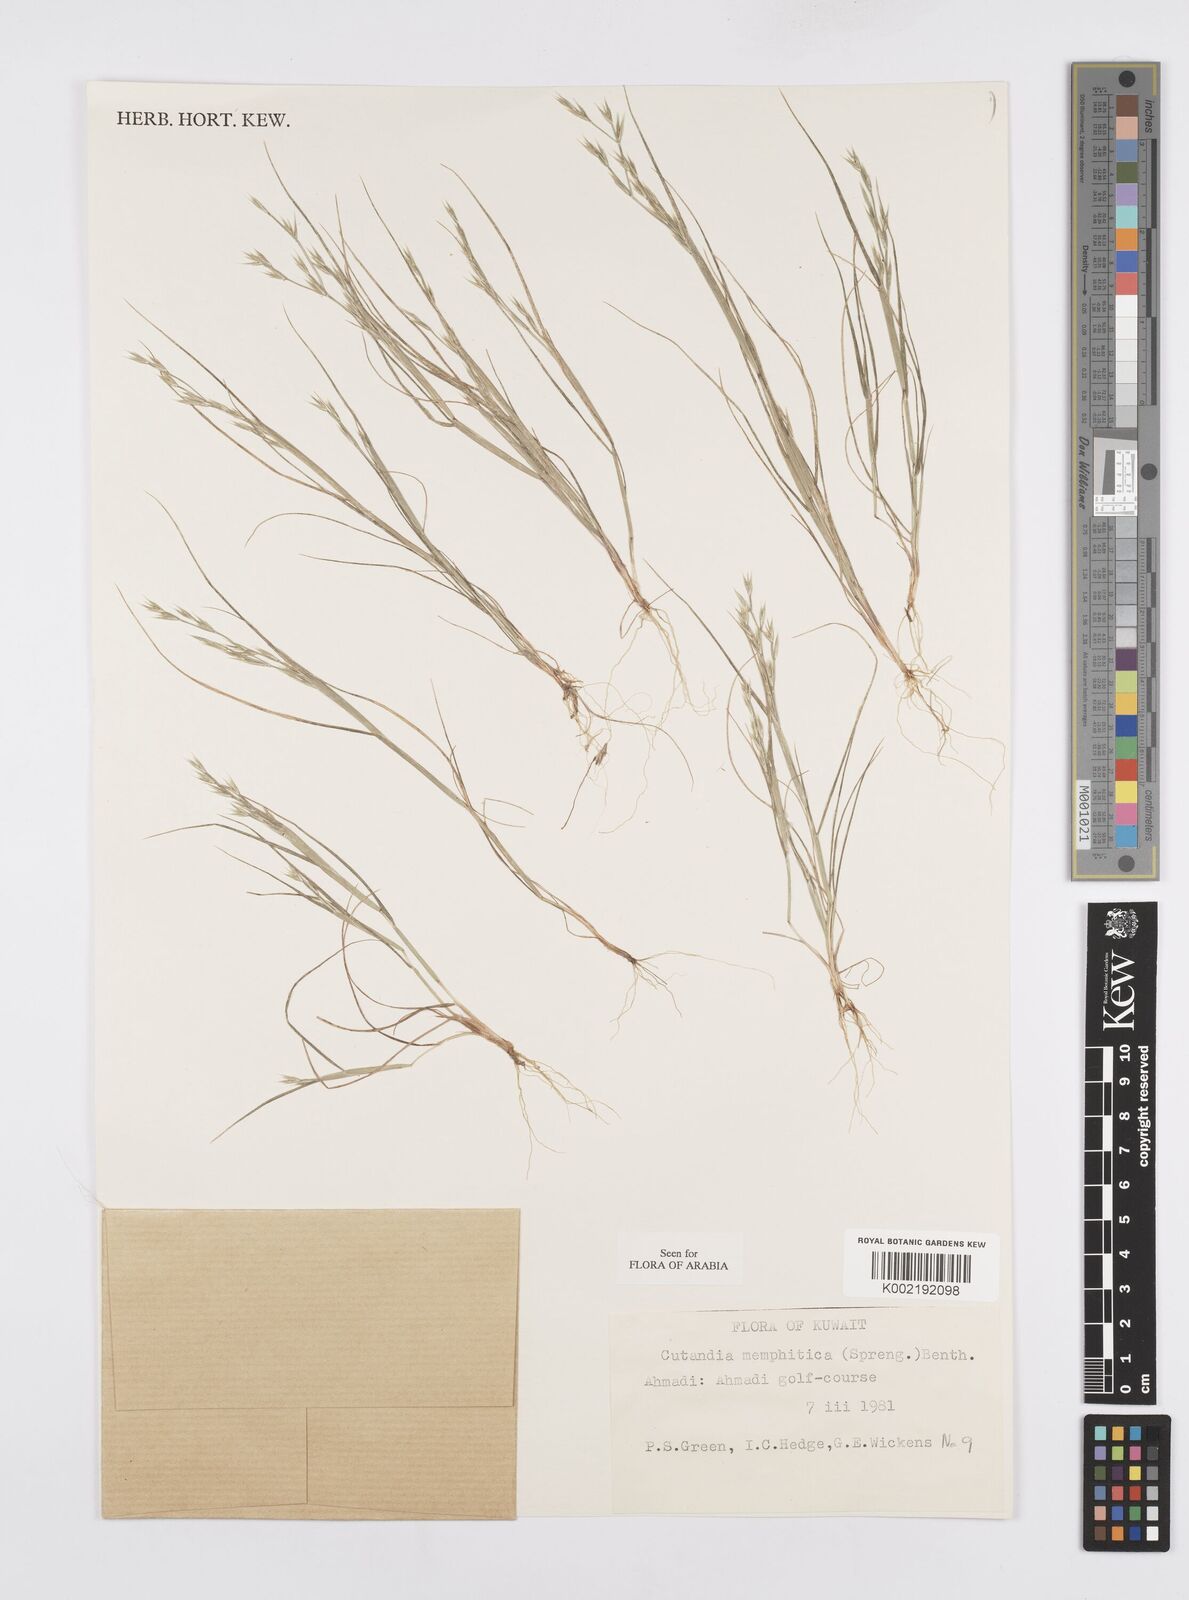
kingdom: Plantae
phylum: Tracheophyta
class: Liliopsida
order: Poales
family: Poaceae
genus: Cutandia
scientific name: Cutandia memphitica
